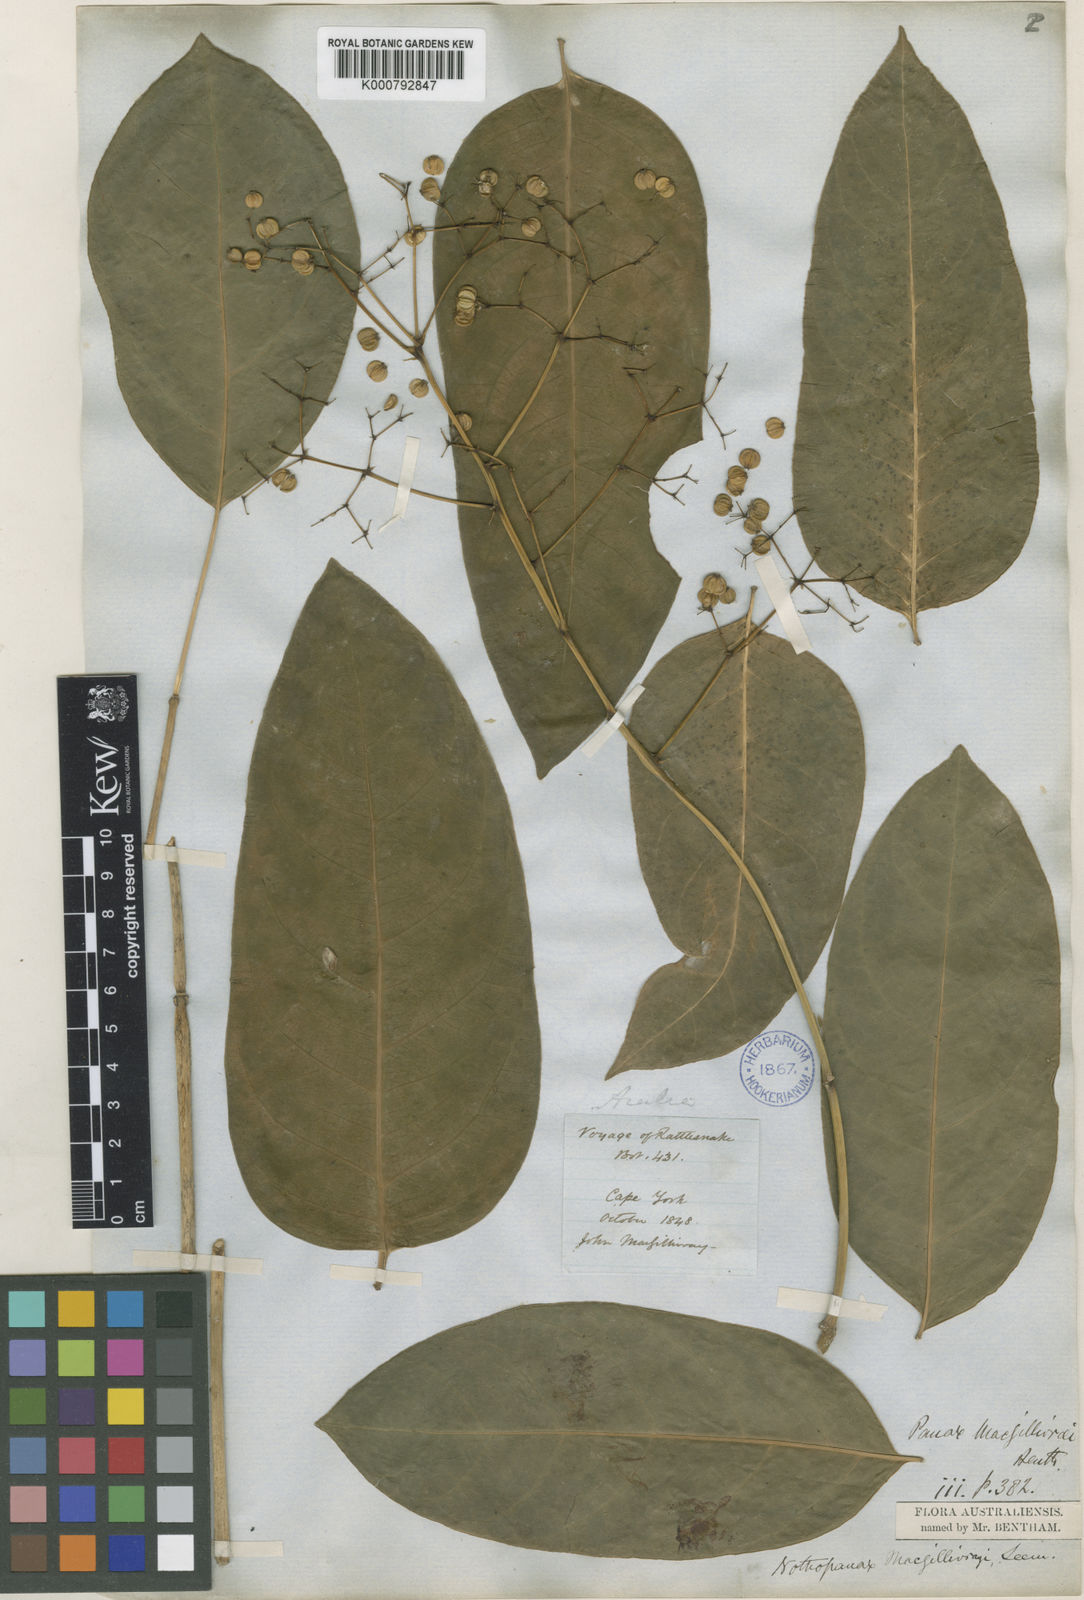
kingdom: Plantae
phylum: Tracheophyta
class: Magnoliopsida
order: Apiales
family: Araliaceae
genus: Polyscias
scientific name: Polyscias macgillivrayi
